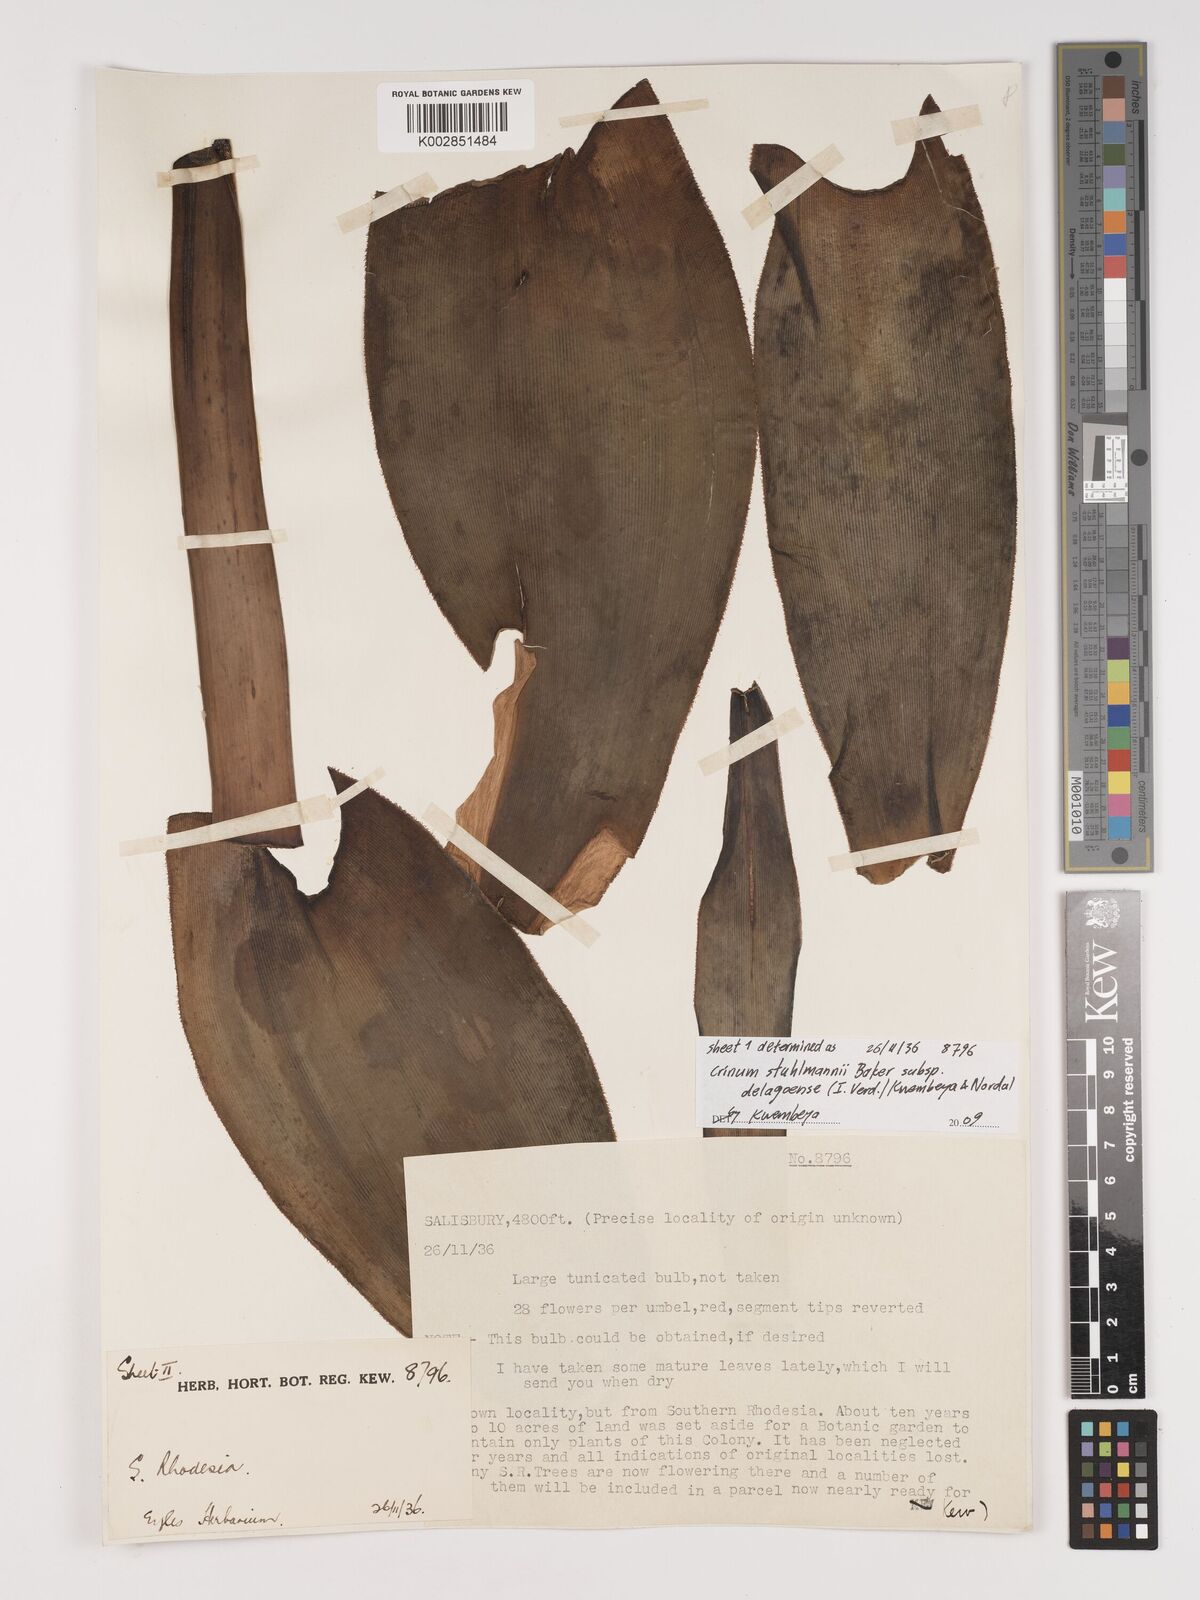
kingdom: Plantae
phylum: Tracheophyta
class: Liliopsida
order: Asparagales
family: Amaryllidaceae
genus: Crinum
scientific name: Crinum stuhlmannii
